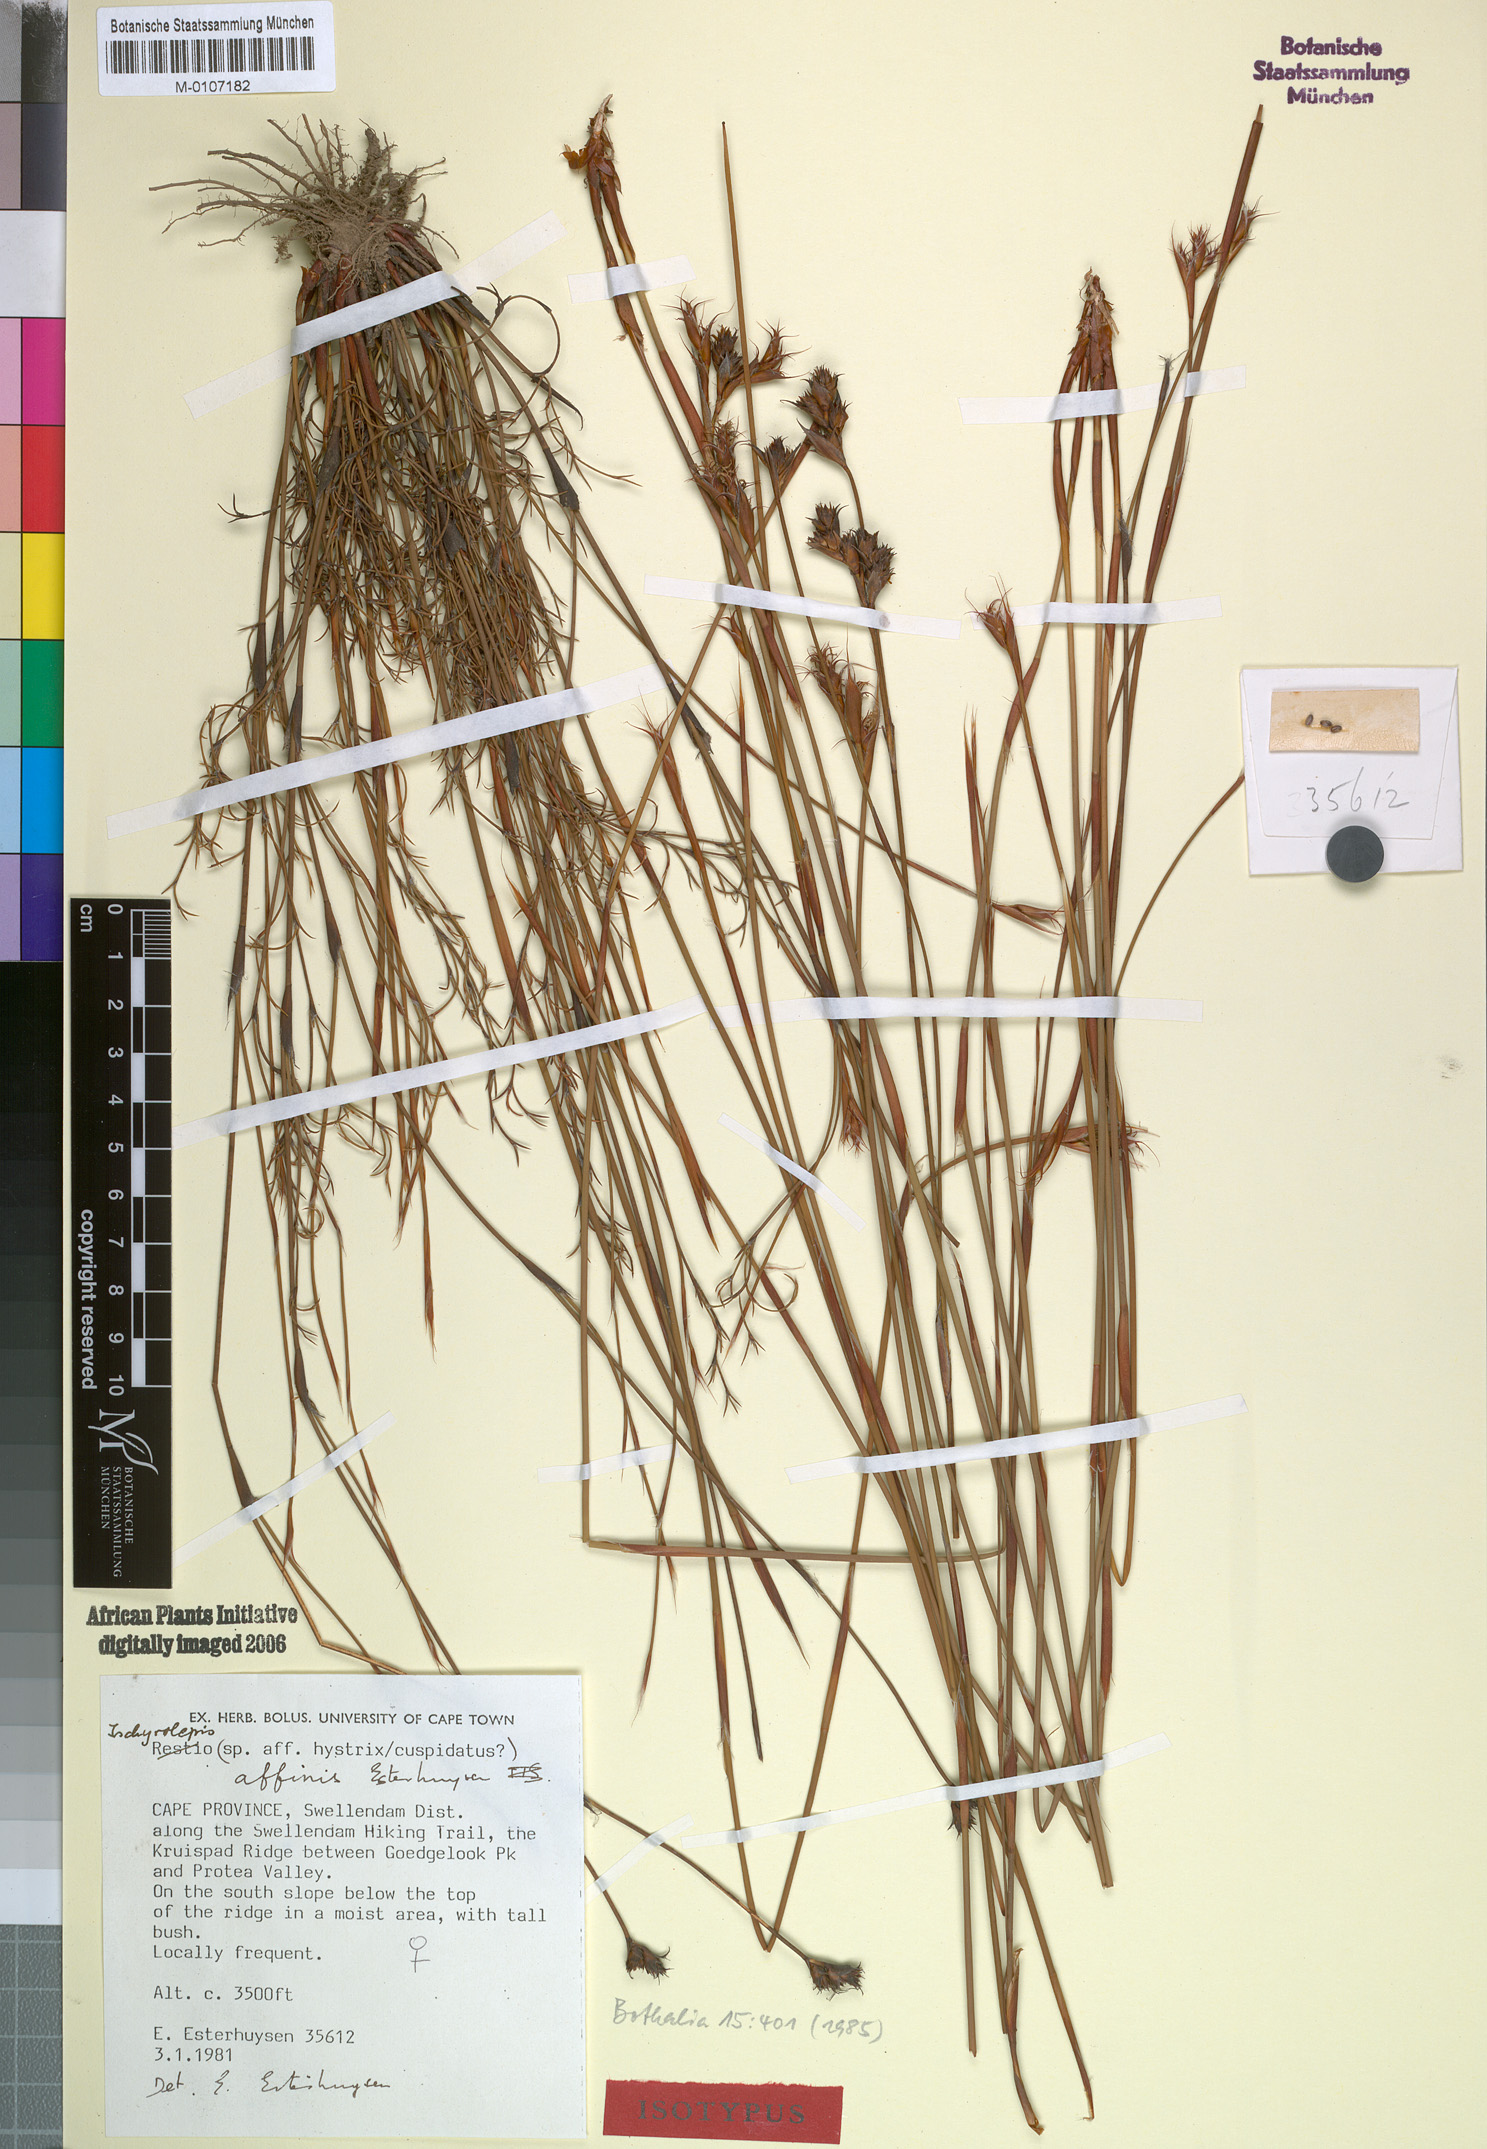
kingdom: Plantae
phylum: Tracheophyta
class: Liliopsida
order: Poales
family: Restionaceae
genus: Restio
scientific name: Restio affinis
